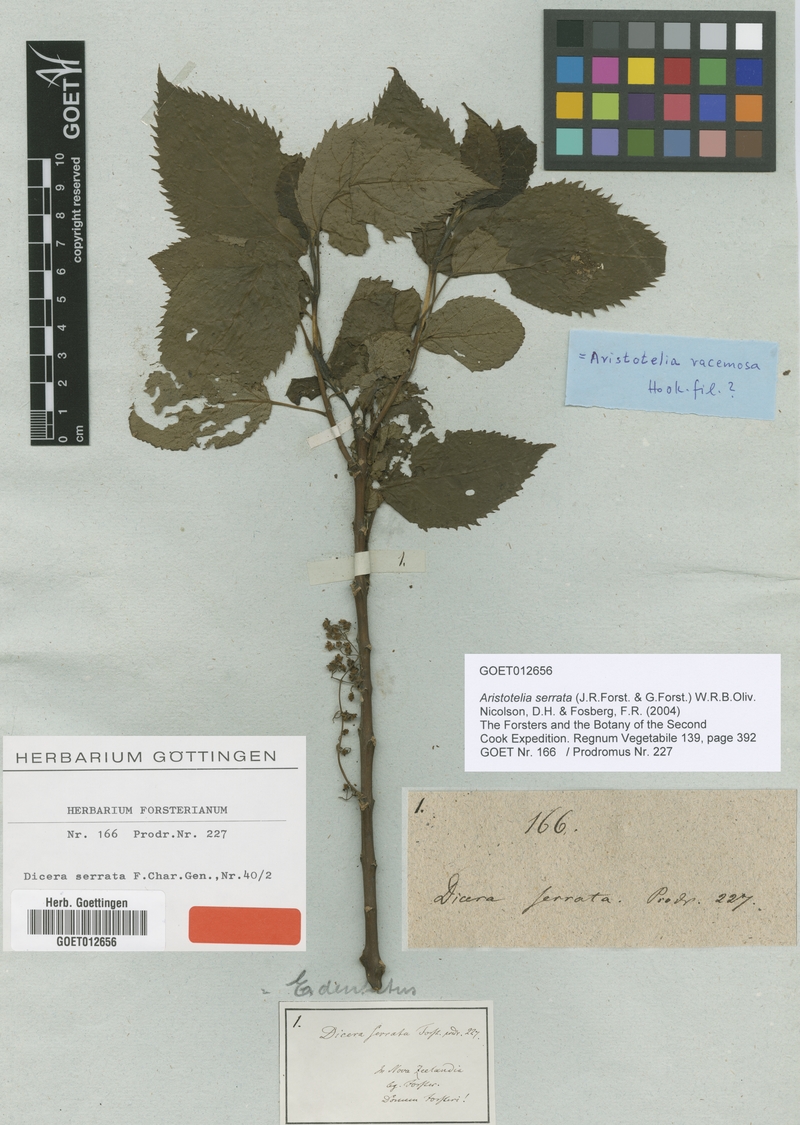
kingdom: Plantae
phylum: Tracheophyta
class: Magnoliopsida
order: Oxalidales
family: Elaeocarpaceae
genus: Aristotelia
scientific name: Aristotelia serrata
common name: New zealand wineberry
